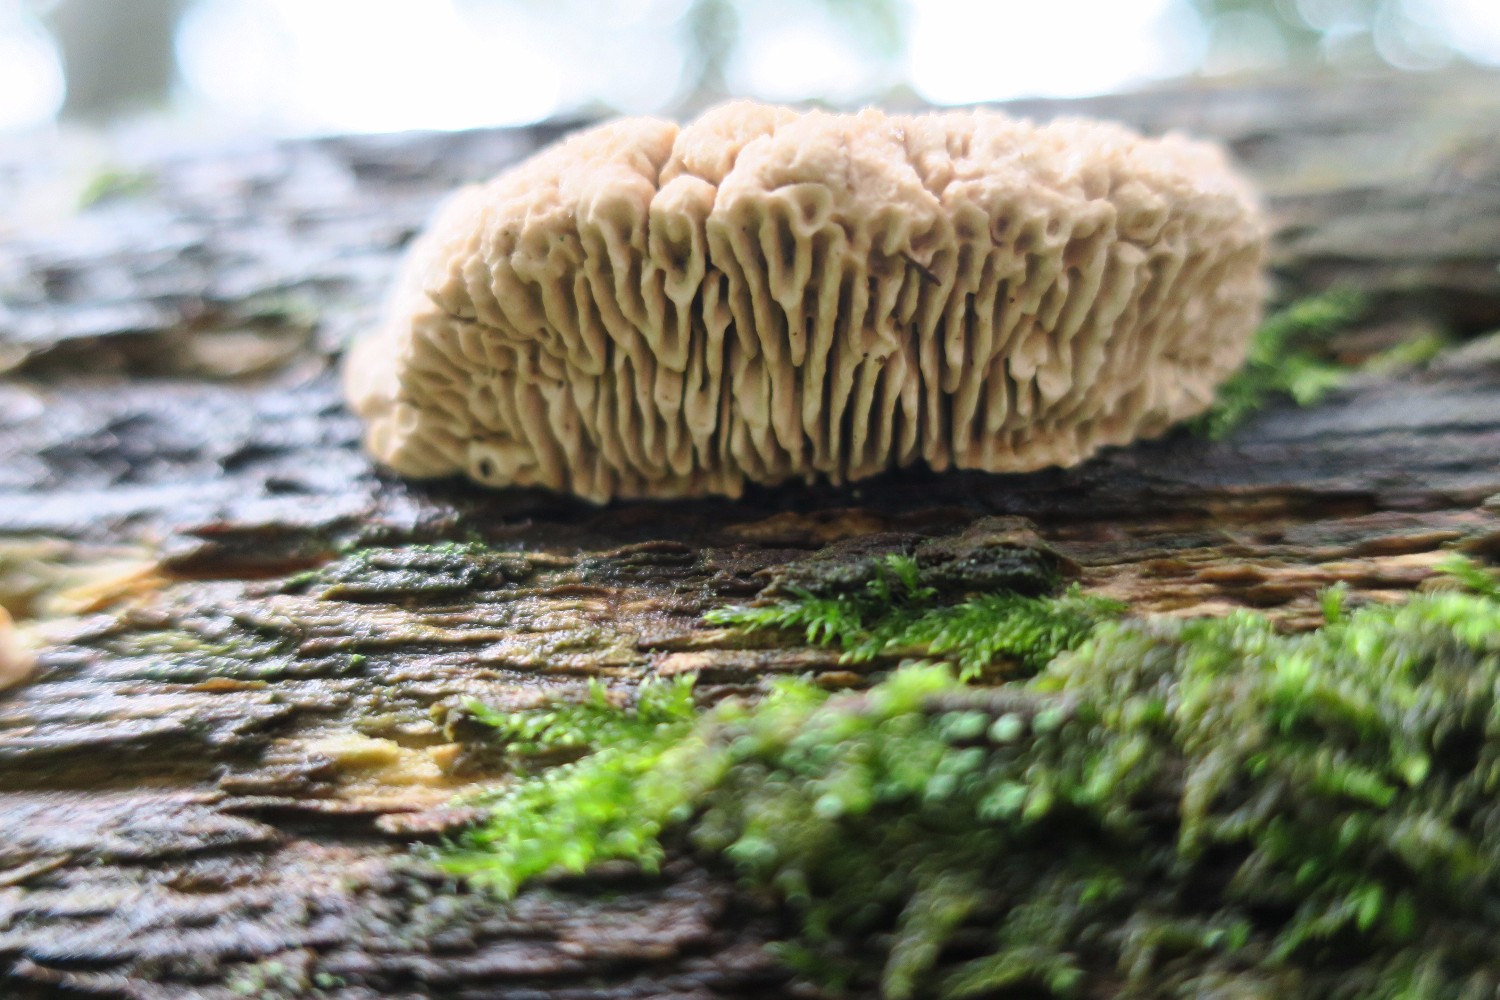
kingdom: Fungi
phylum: Basidiomycota
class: Agaricomycetes
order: Polyporales
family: Fomitopsidaceae
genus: Daedalea
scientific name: Daedalea quercina
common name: ege-labyrintsvamp
